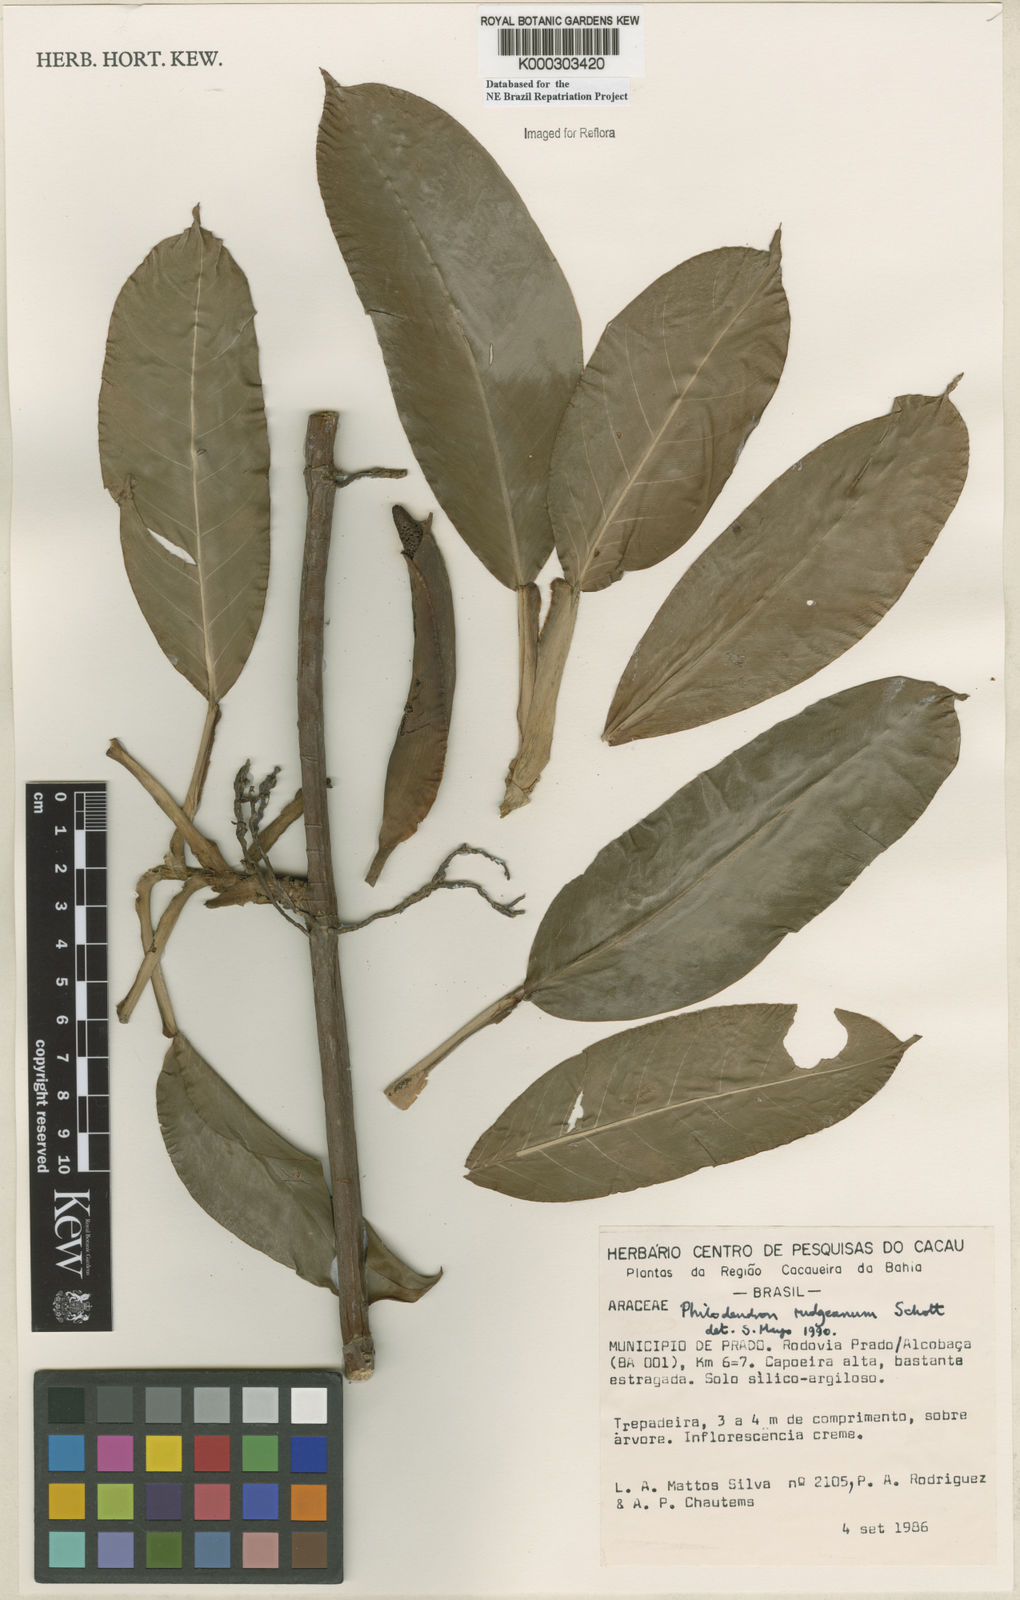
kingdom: Plantae
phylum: Tracheophyta
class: Liliopsida
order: Alismatales
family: Araceae
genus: Philodendron
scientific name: Philodendron rudgeanum
